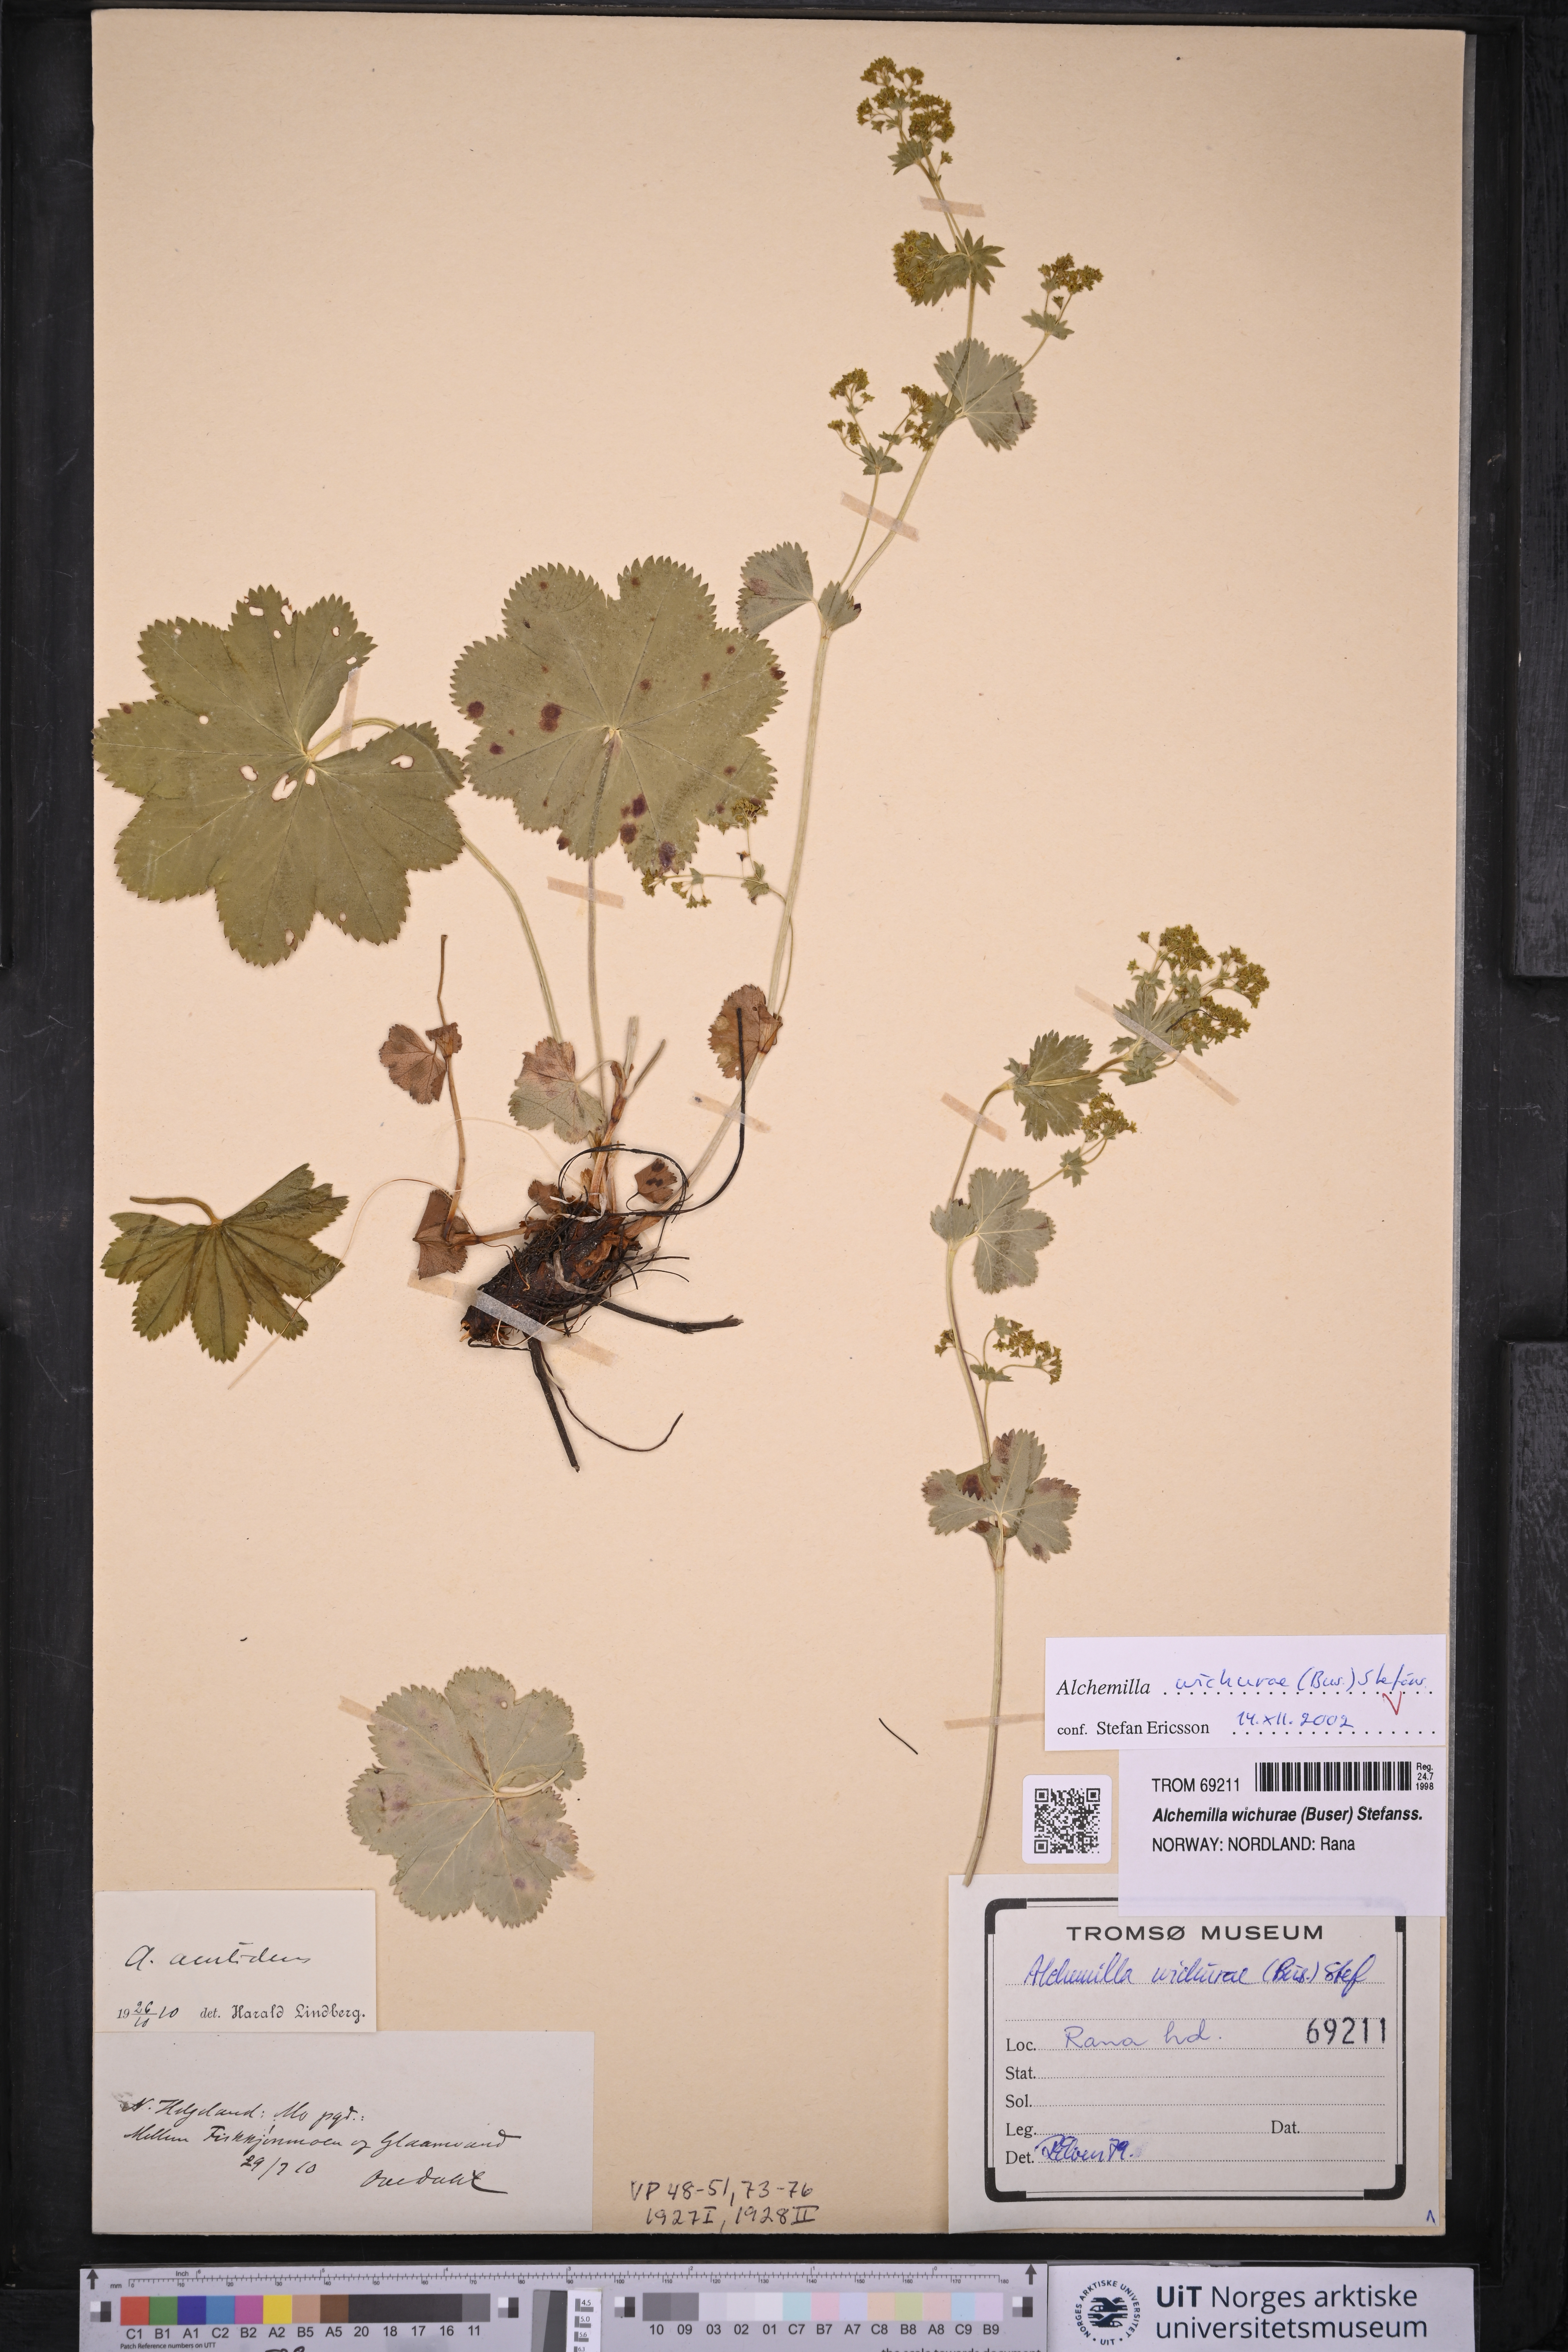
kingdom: Plantae
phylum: Tracheophyta
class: Magnoliopsida
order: Rosales
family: Rosaceae
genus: Alchemilla
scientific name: Alchemilla wichurae
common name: Rock lady's mantle
